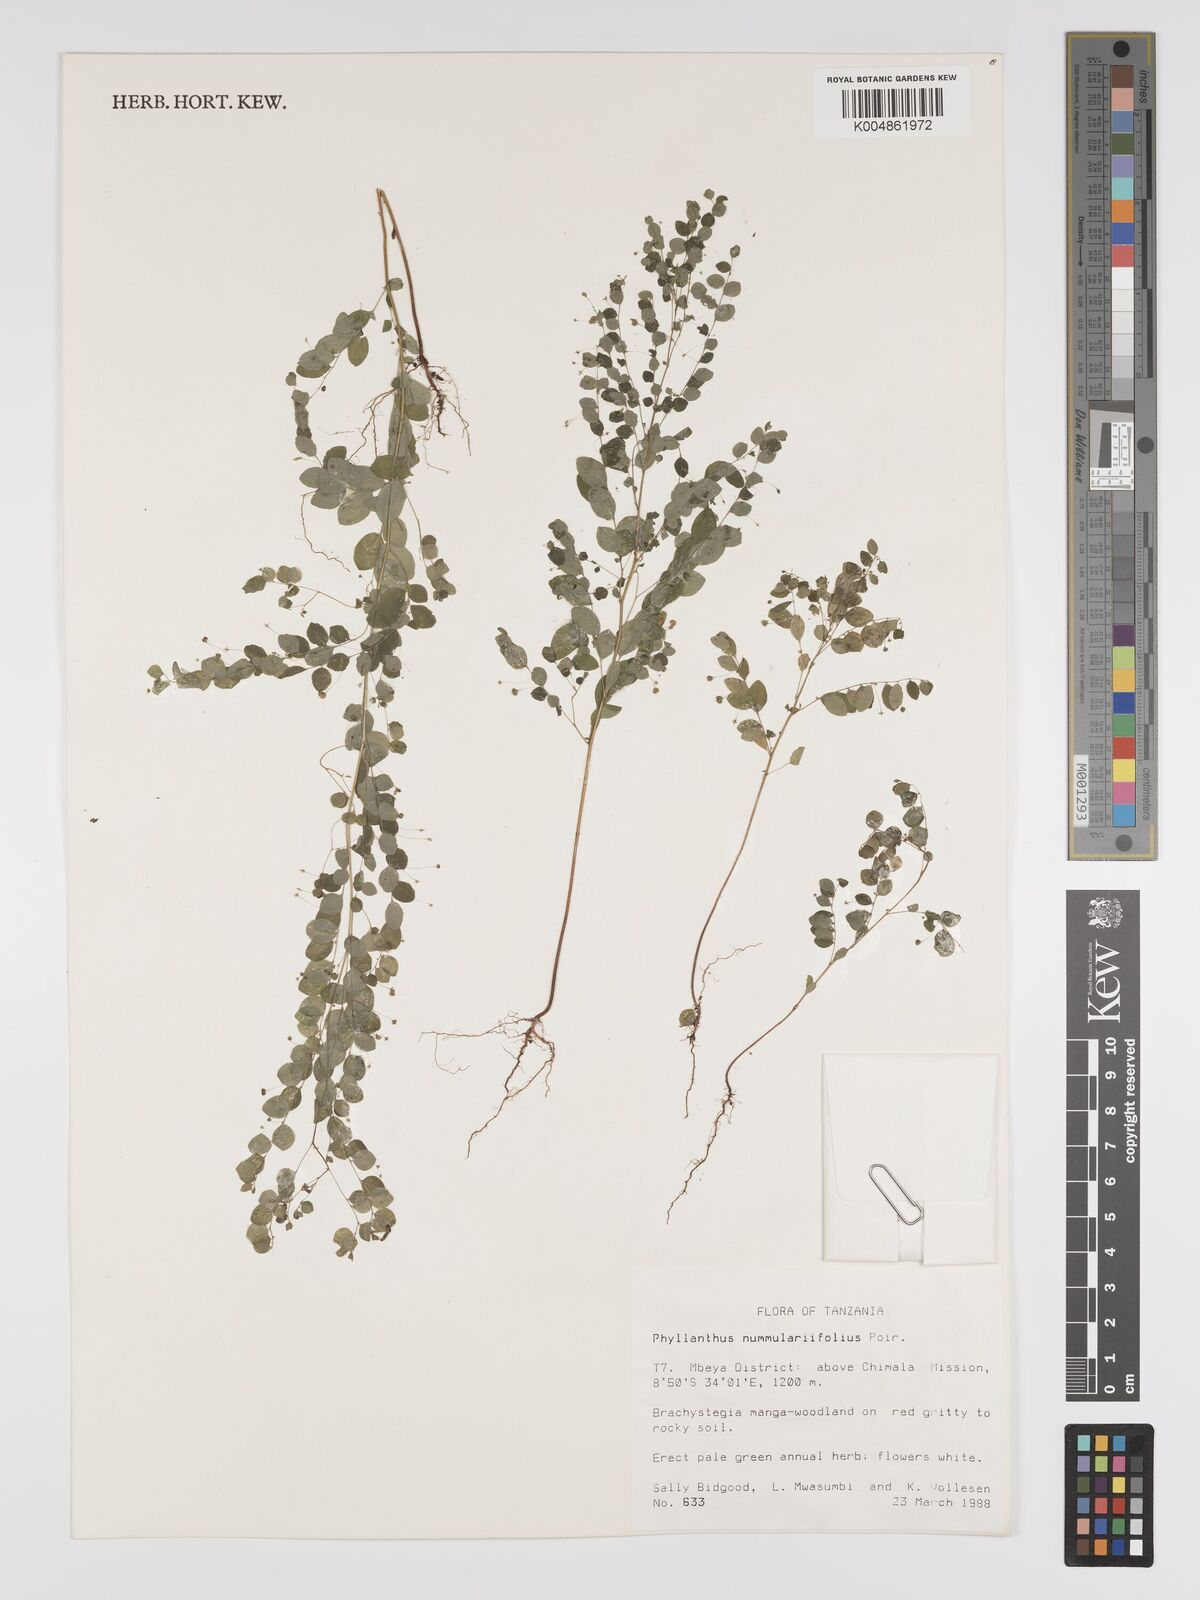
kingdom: Plantae
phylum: Tracheophyta
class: Magnoliopsida
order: Malpighiales
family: Phyllanthaceae
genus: Phyllanthus
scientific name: Phyllanthus nummulariifolius
